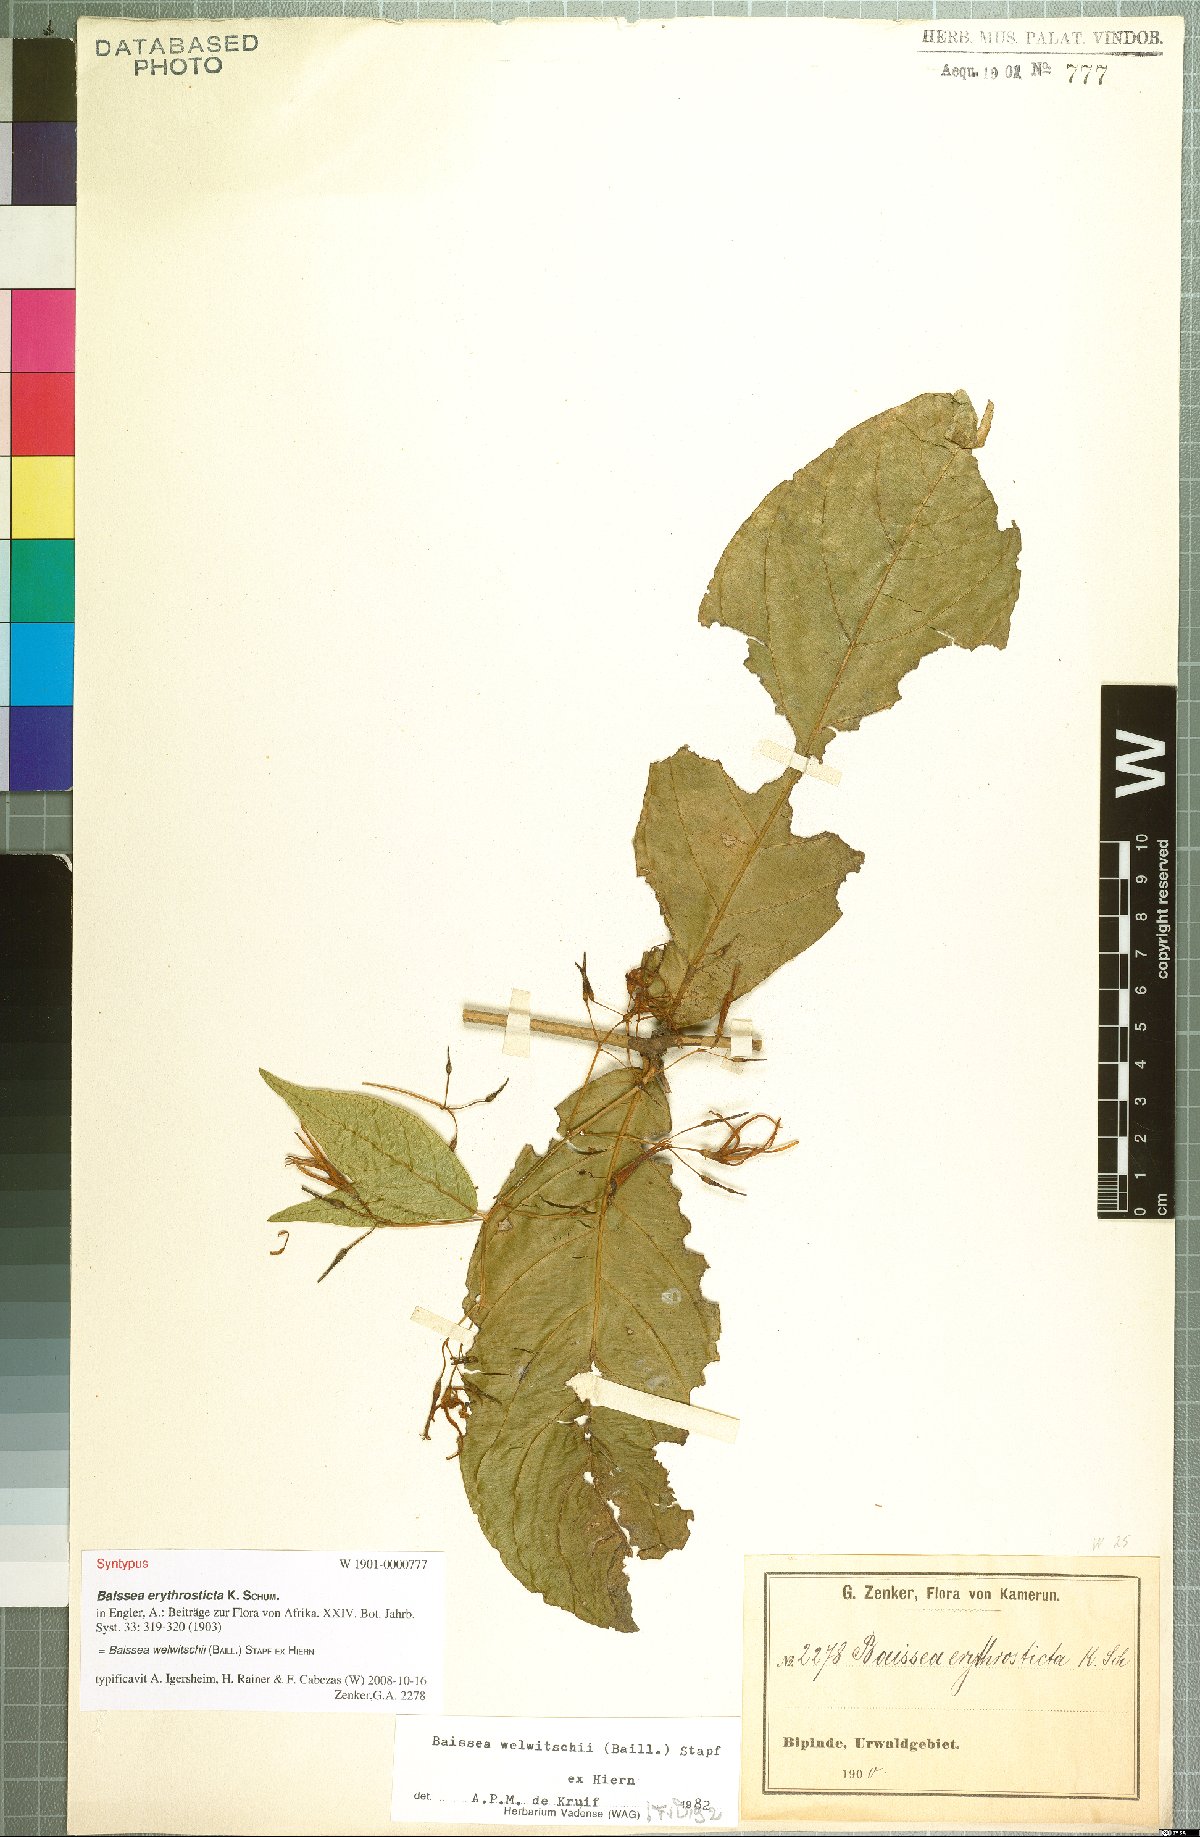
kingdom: Plantae
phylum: Tracheophyta
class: Magnoliopsida
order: Gentianales
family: Apocynaceae
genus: Baissea
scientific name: Baissea welwitschii
